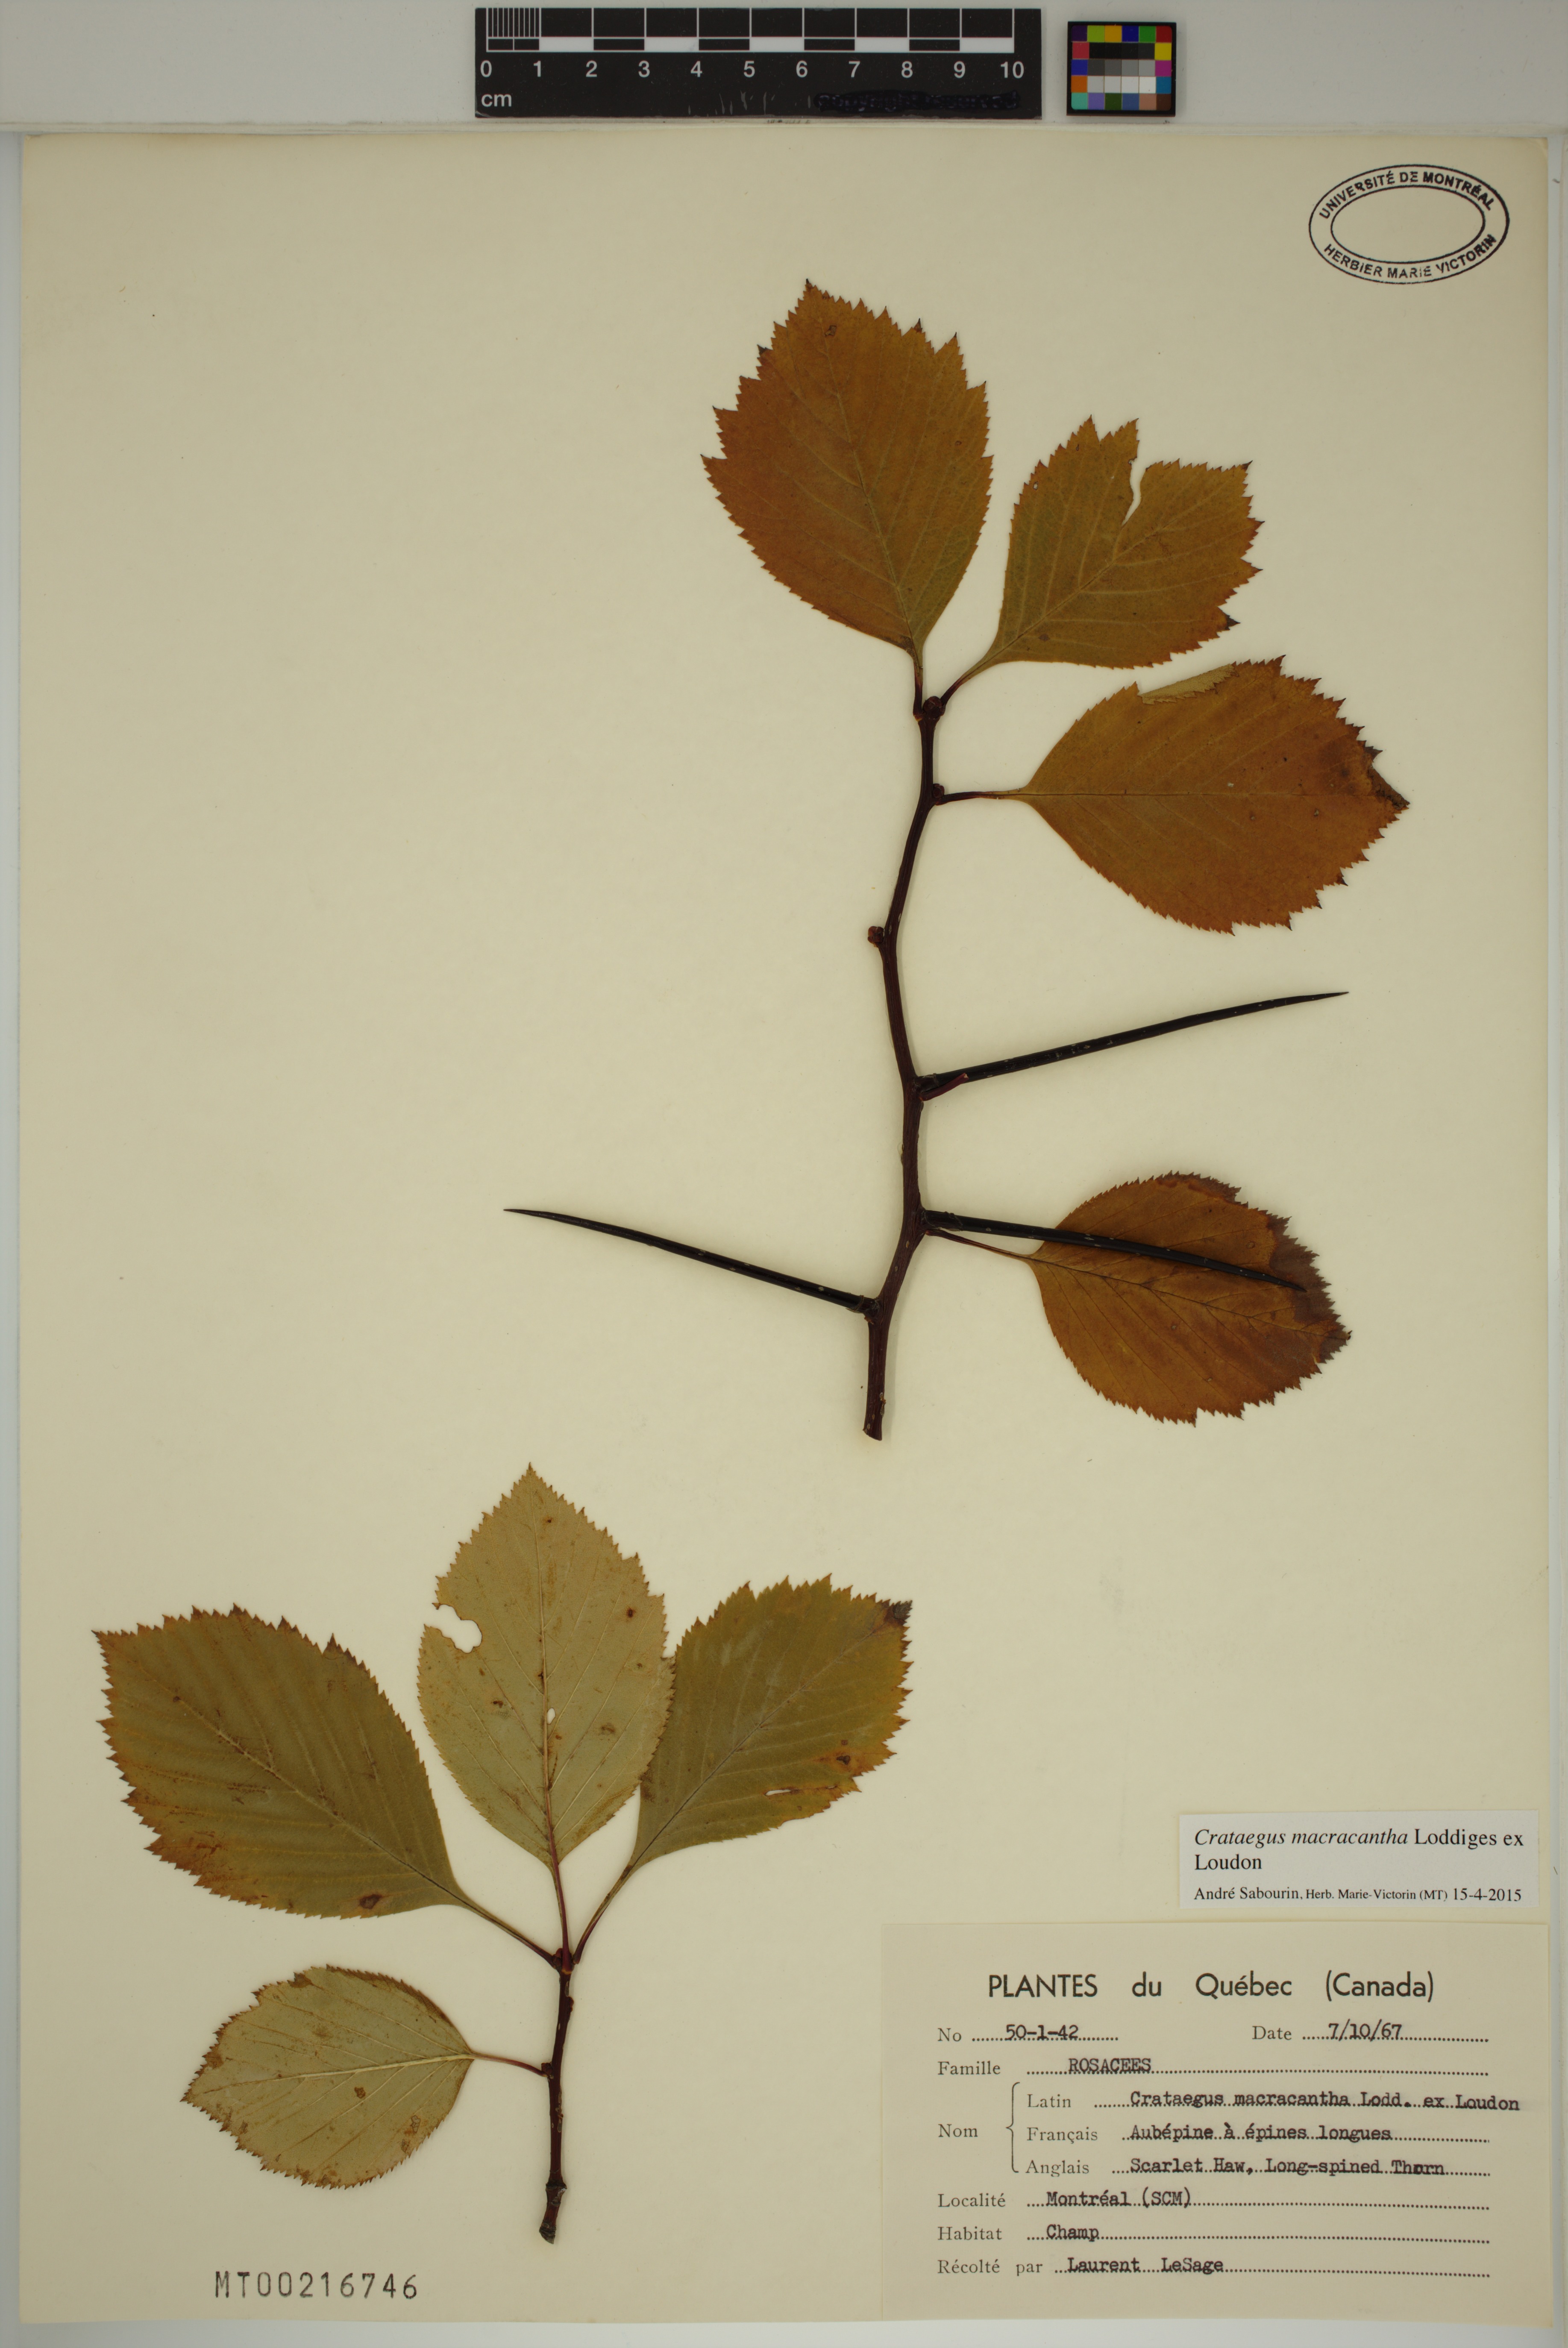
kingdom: Plantae
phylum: Tracheophyta
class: Magnoliopsida
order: Rosales
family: Rosaceae
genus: Crataegus
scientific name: Crataegus macracantha
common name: Large-thorn hawthorn
